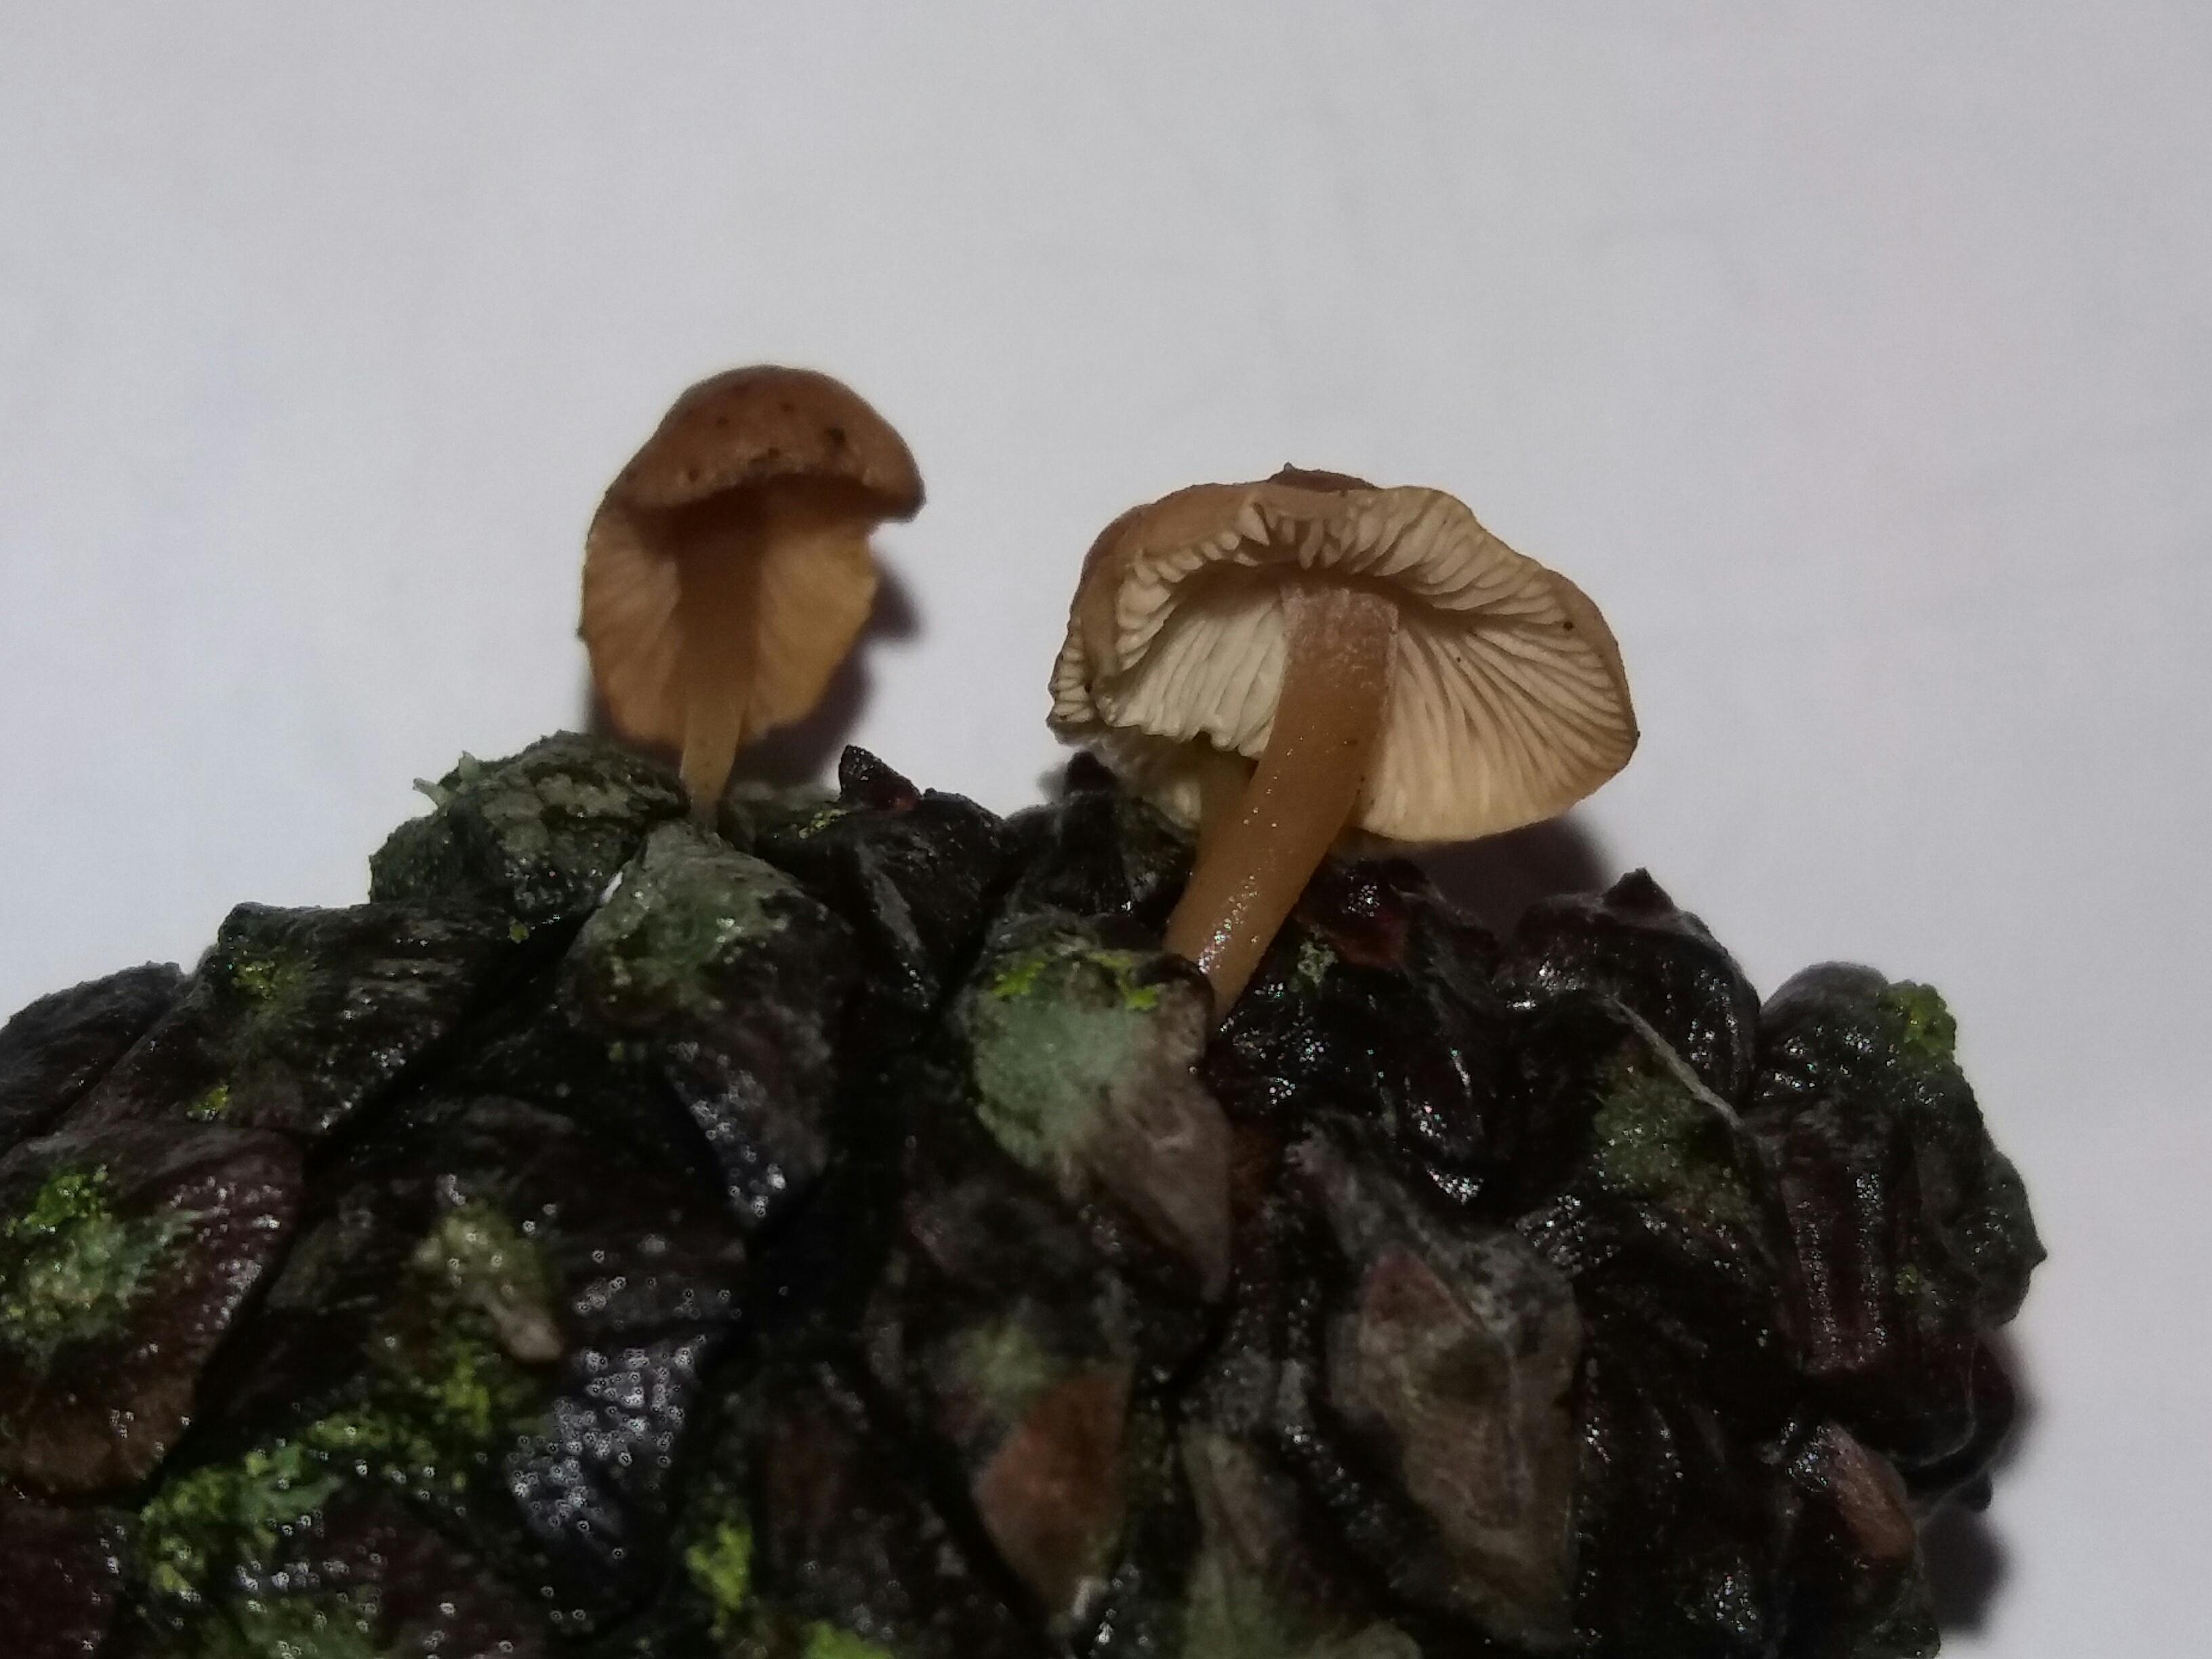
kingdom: Fungi
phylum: Basidiomycota
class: Agaricomycetes
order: Agaricales
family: Marasmiaceae
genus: Baeospora
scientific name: Baeospora myosura
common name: koglebruskhat
